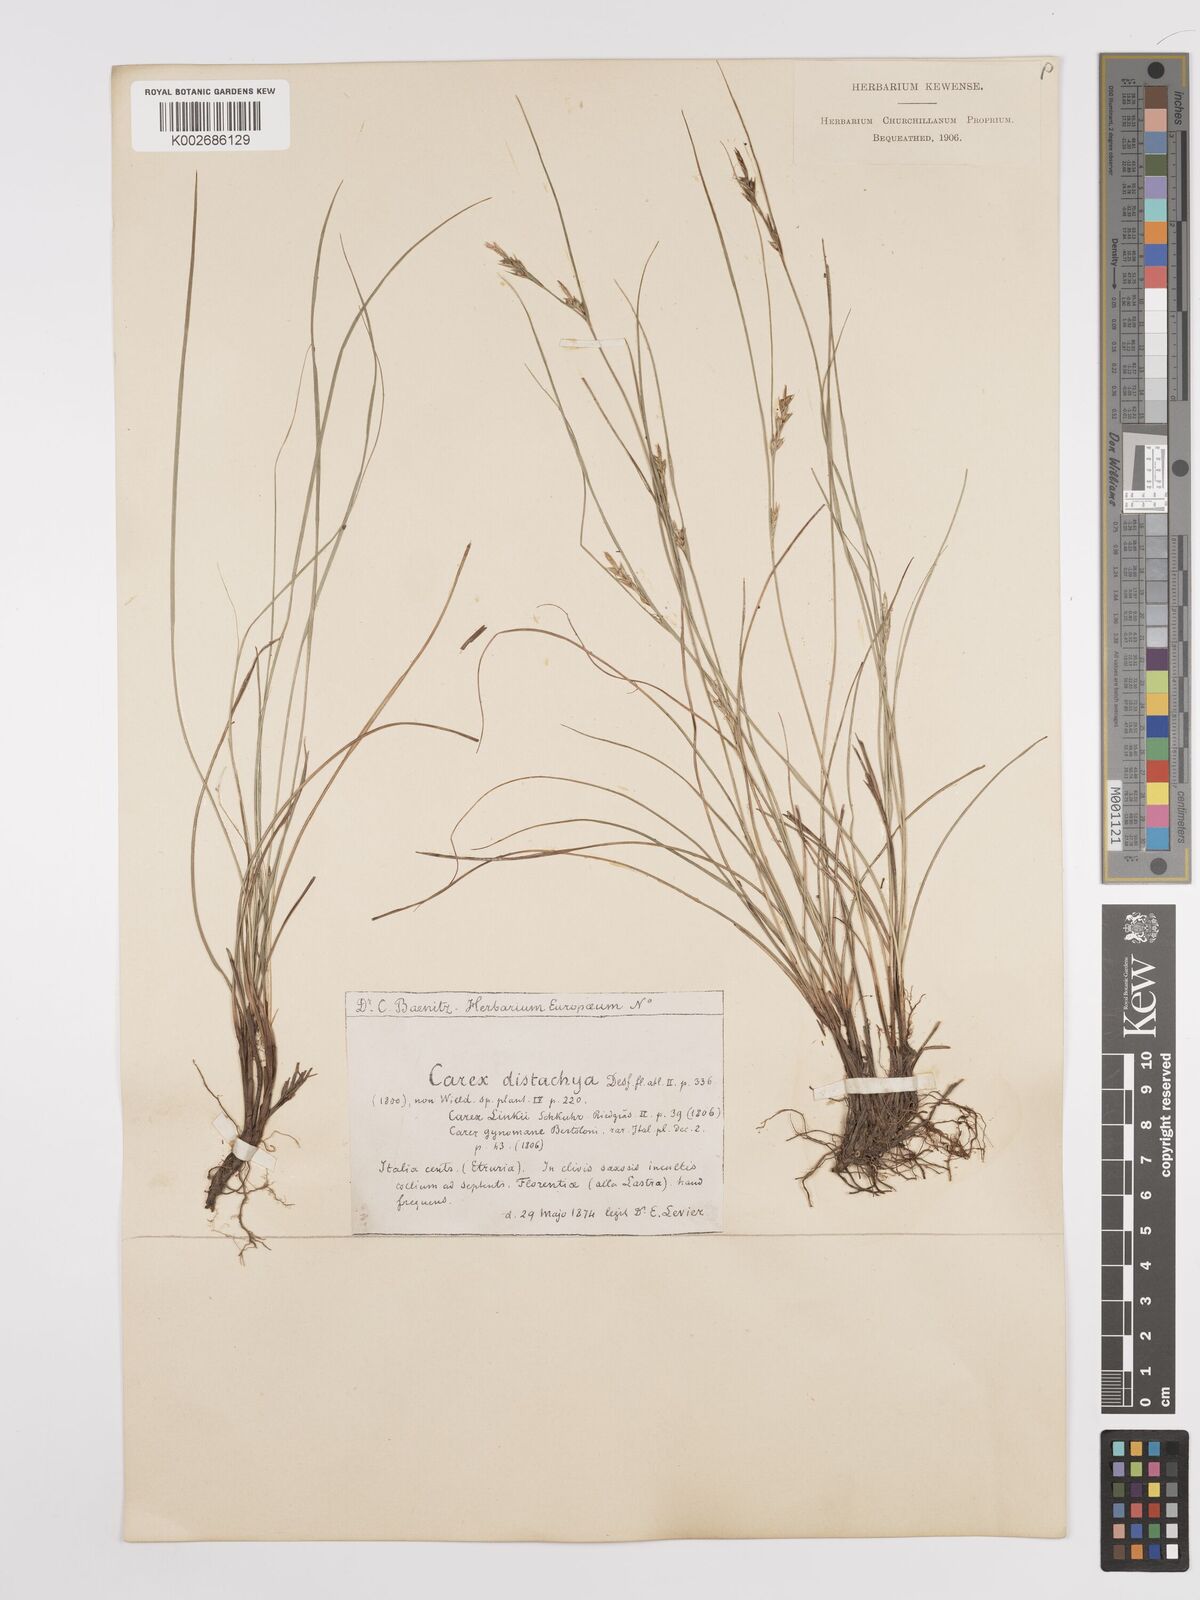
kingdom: Plantae
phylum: Tracheophyta
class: Liliopsida
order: Poales
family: Cyperaceae
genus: Carex
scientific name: Carex distachya
